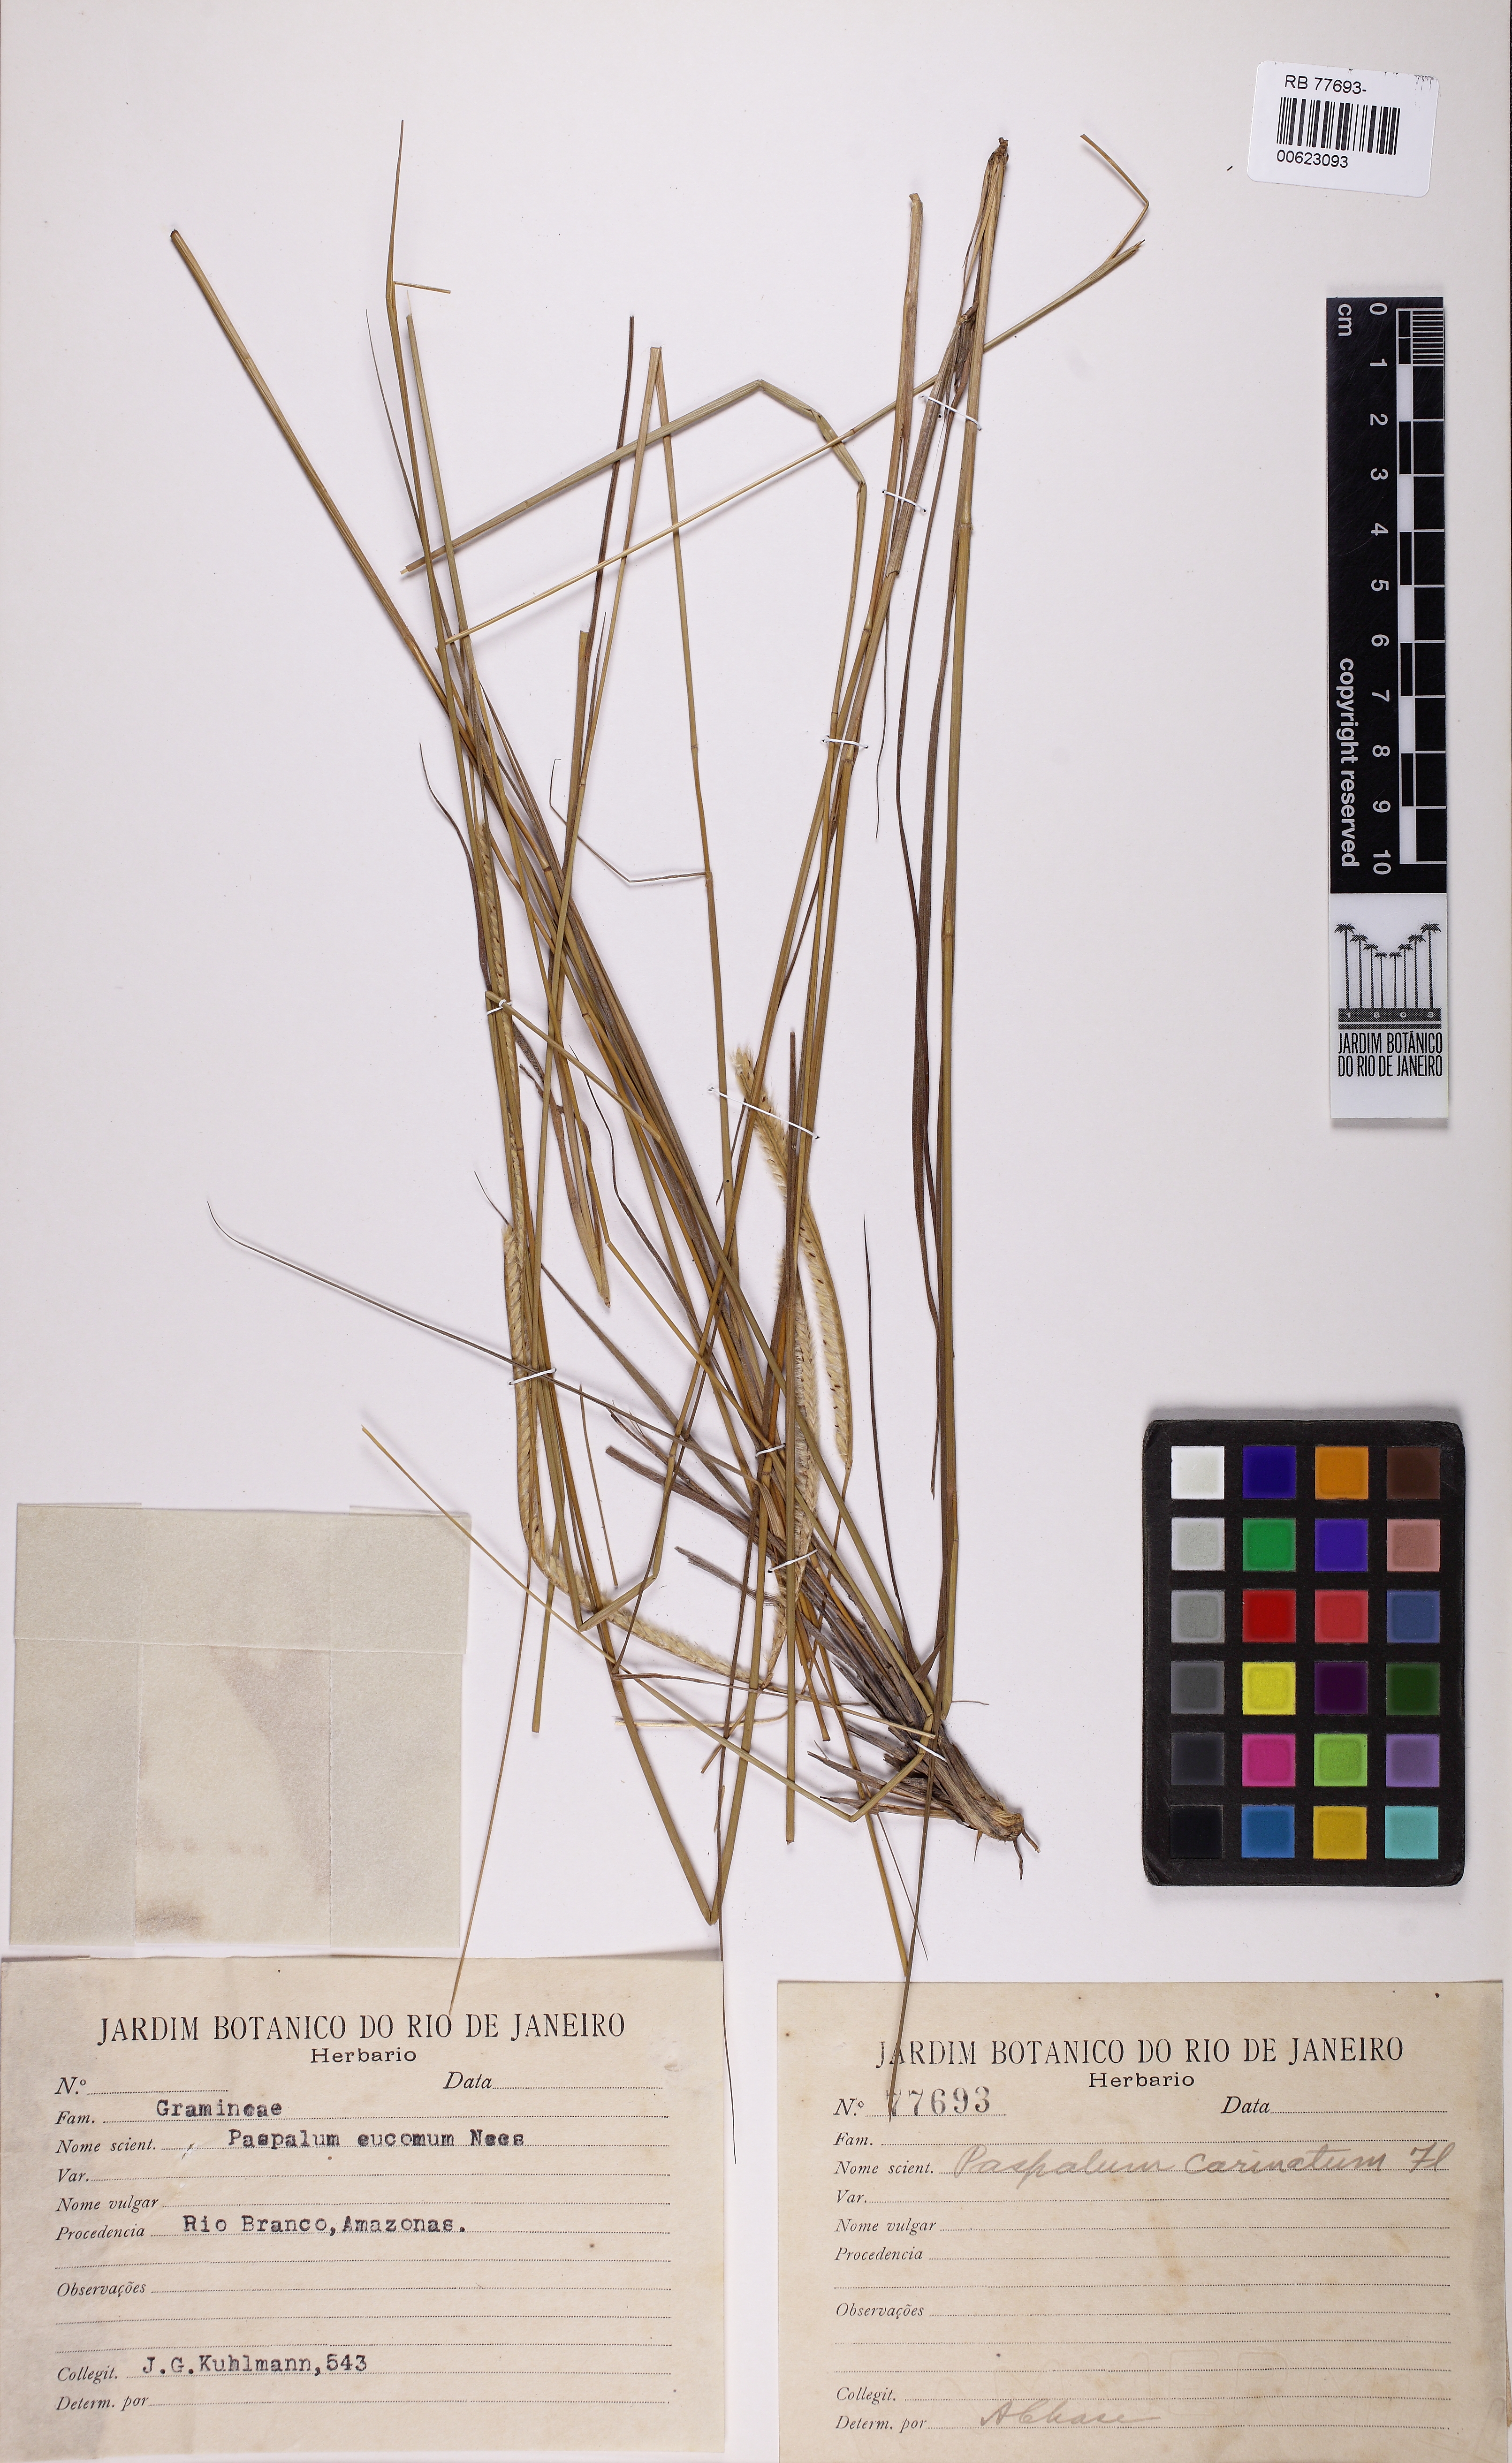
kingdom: Plantae
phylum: Tracheophyta
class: Liliopsida
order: Poales
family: Poaceae
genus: Paspalum
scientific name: Paspalum carinatum
